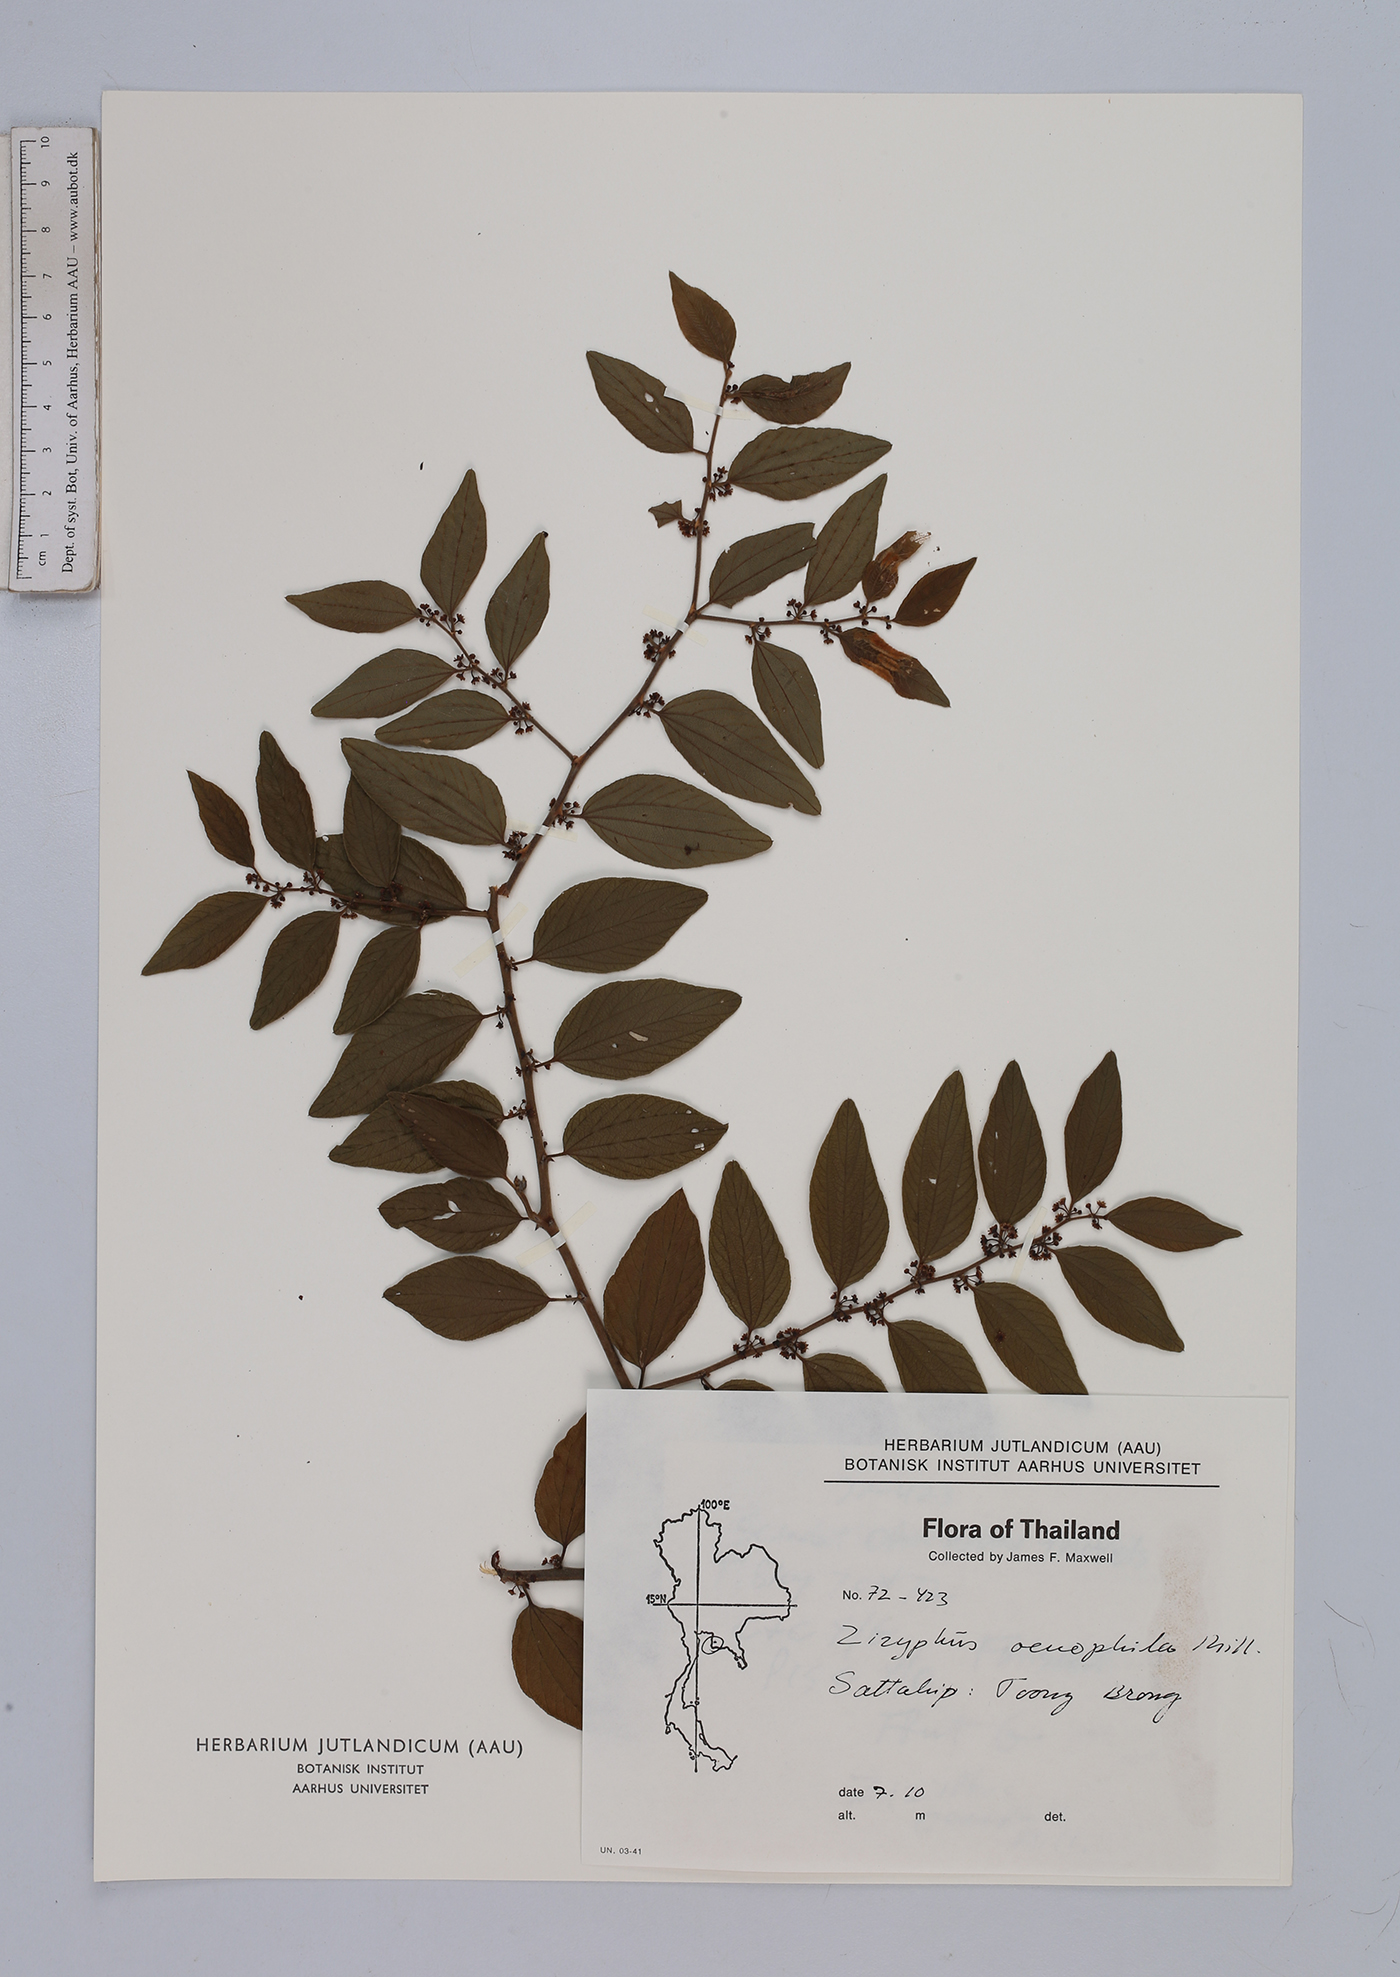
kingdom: Plantae
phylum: Tracheophyta
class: Magnoliopsida
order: Rosales
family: Rhamnaceae
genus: Ziziphus
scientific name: Ziziphus oenopolia
